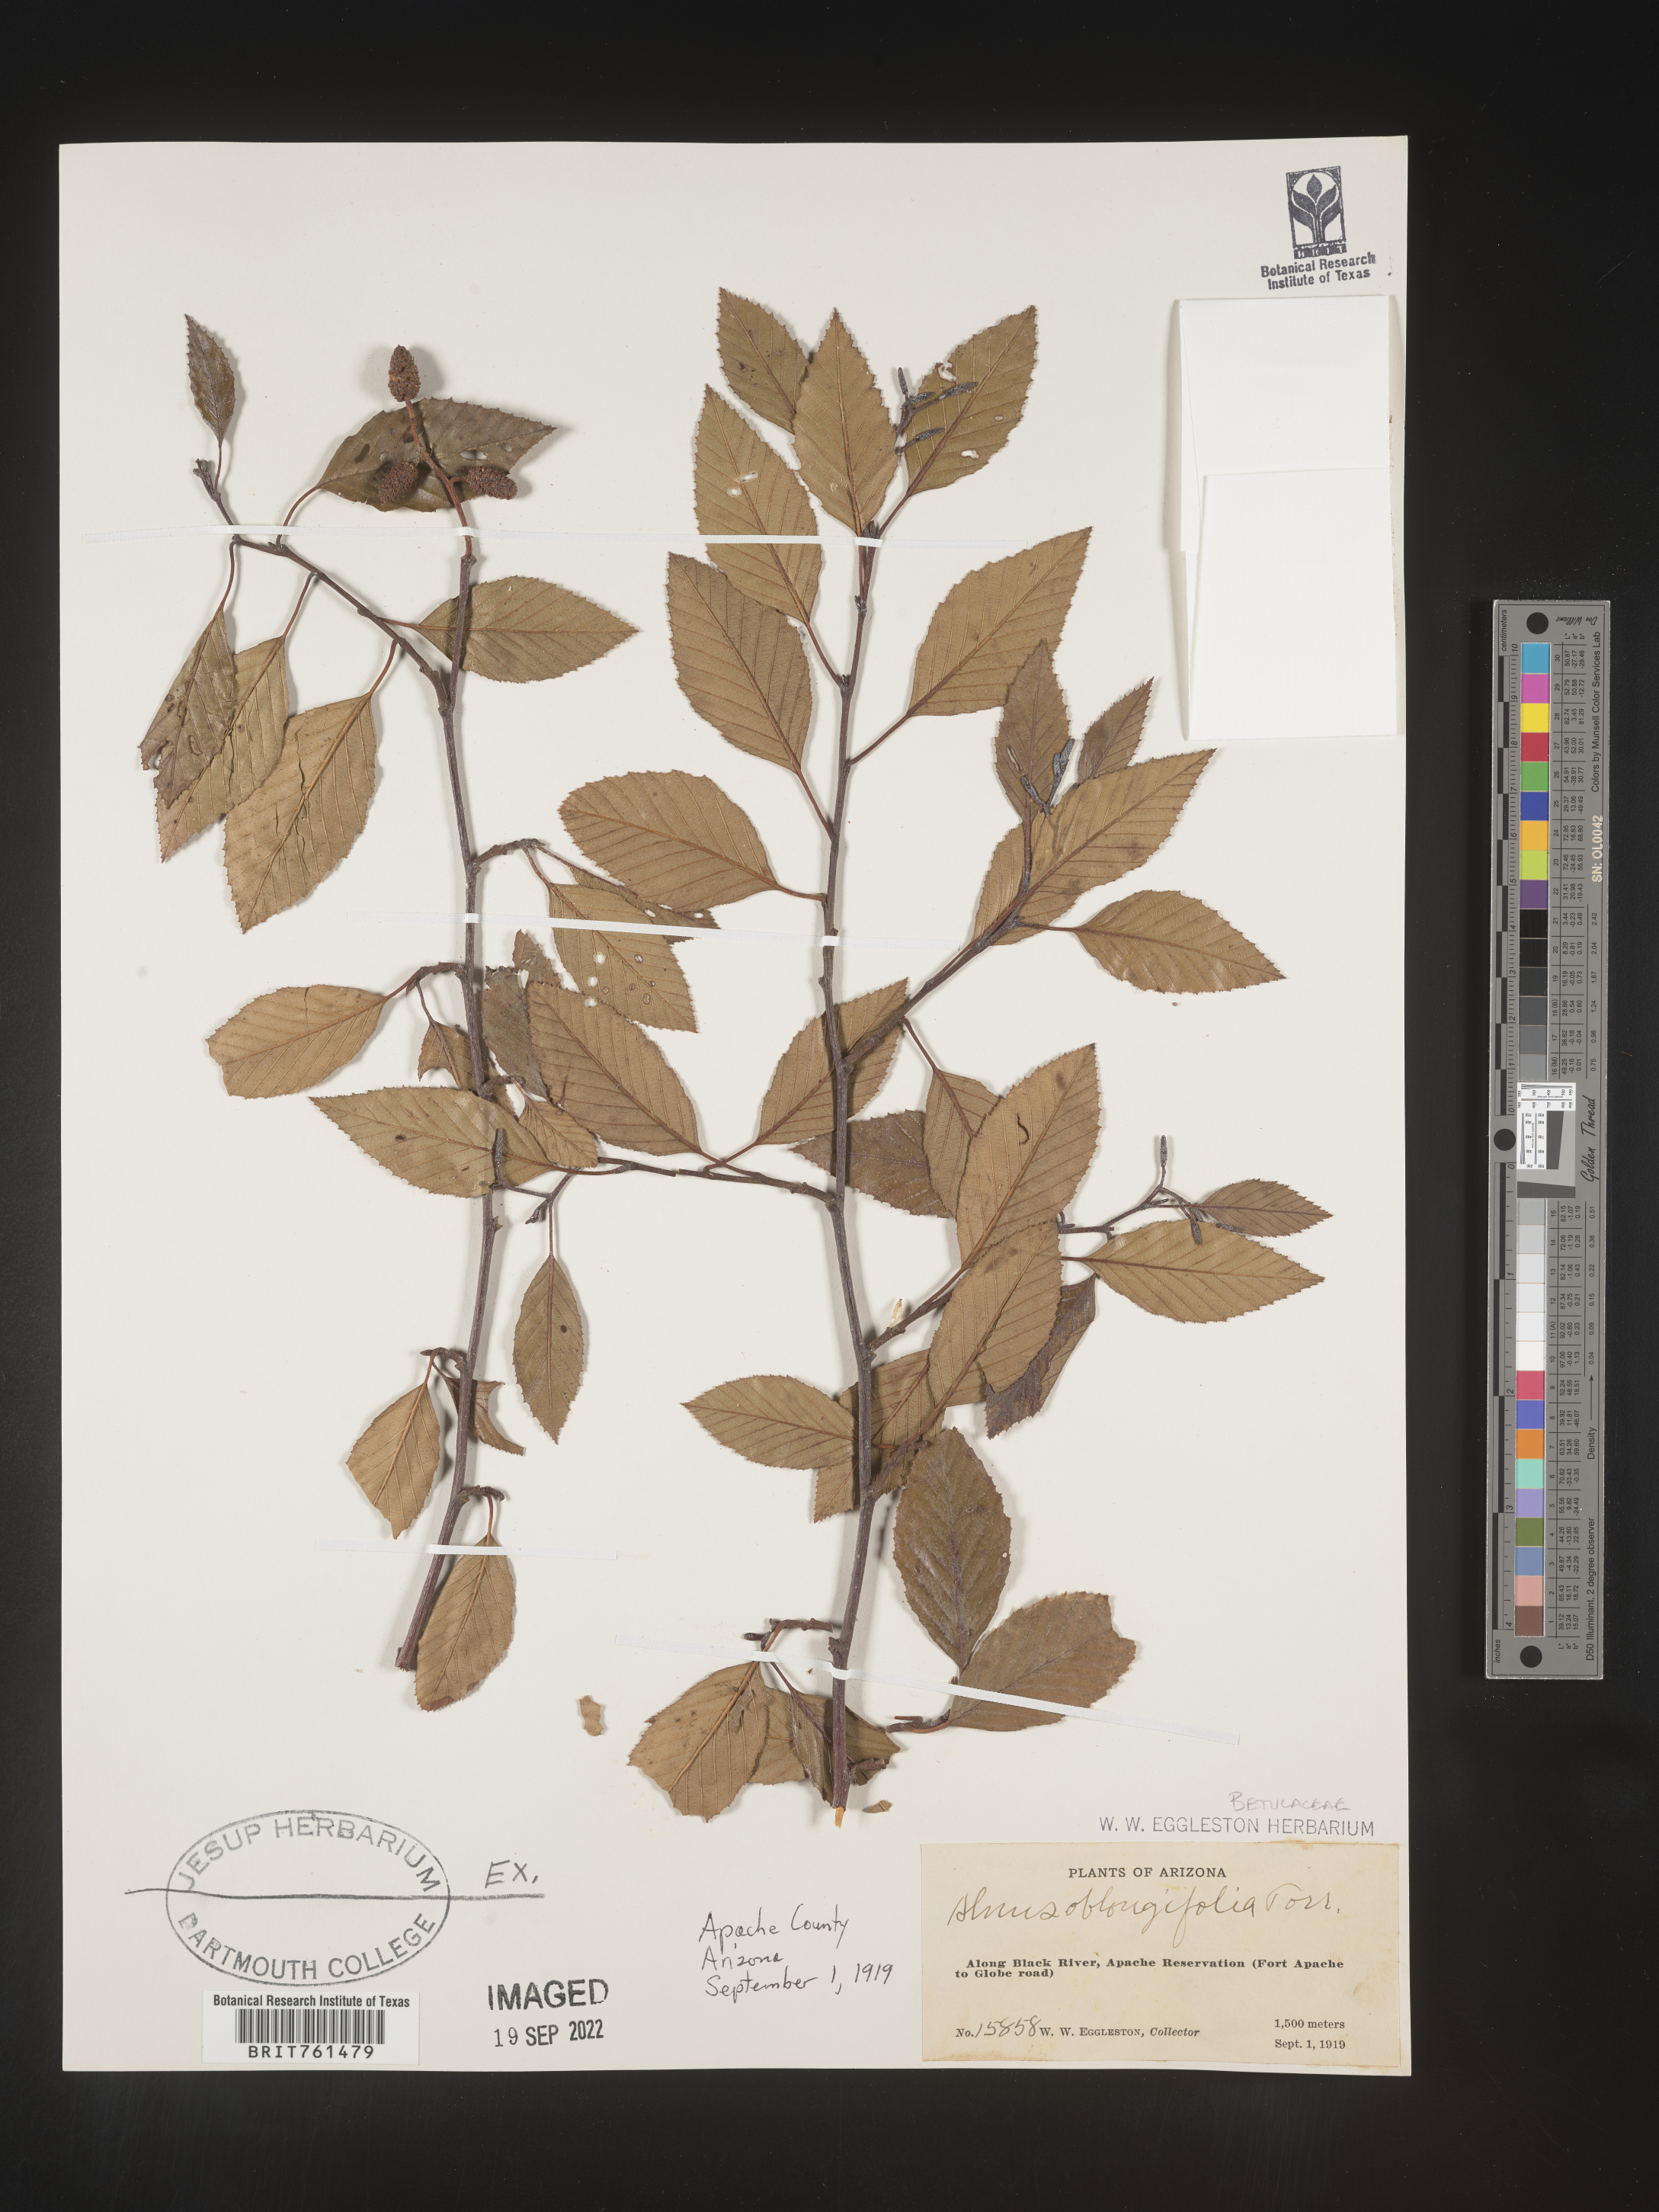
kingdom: Plantae
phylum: Tracheophyta
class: Magnoliopsida
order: Fagales
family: Betulaceae
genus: Alnus
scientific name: Alnus
